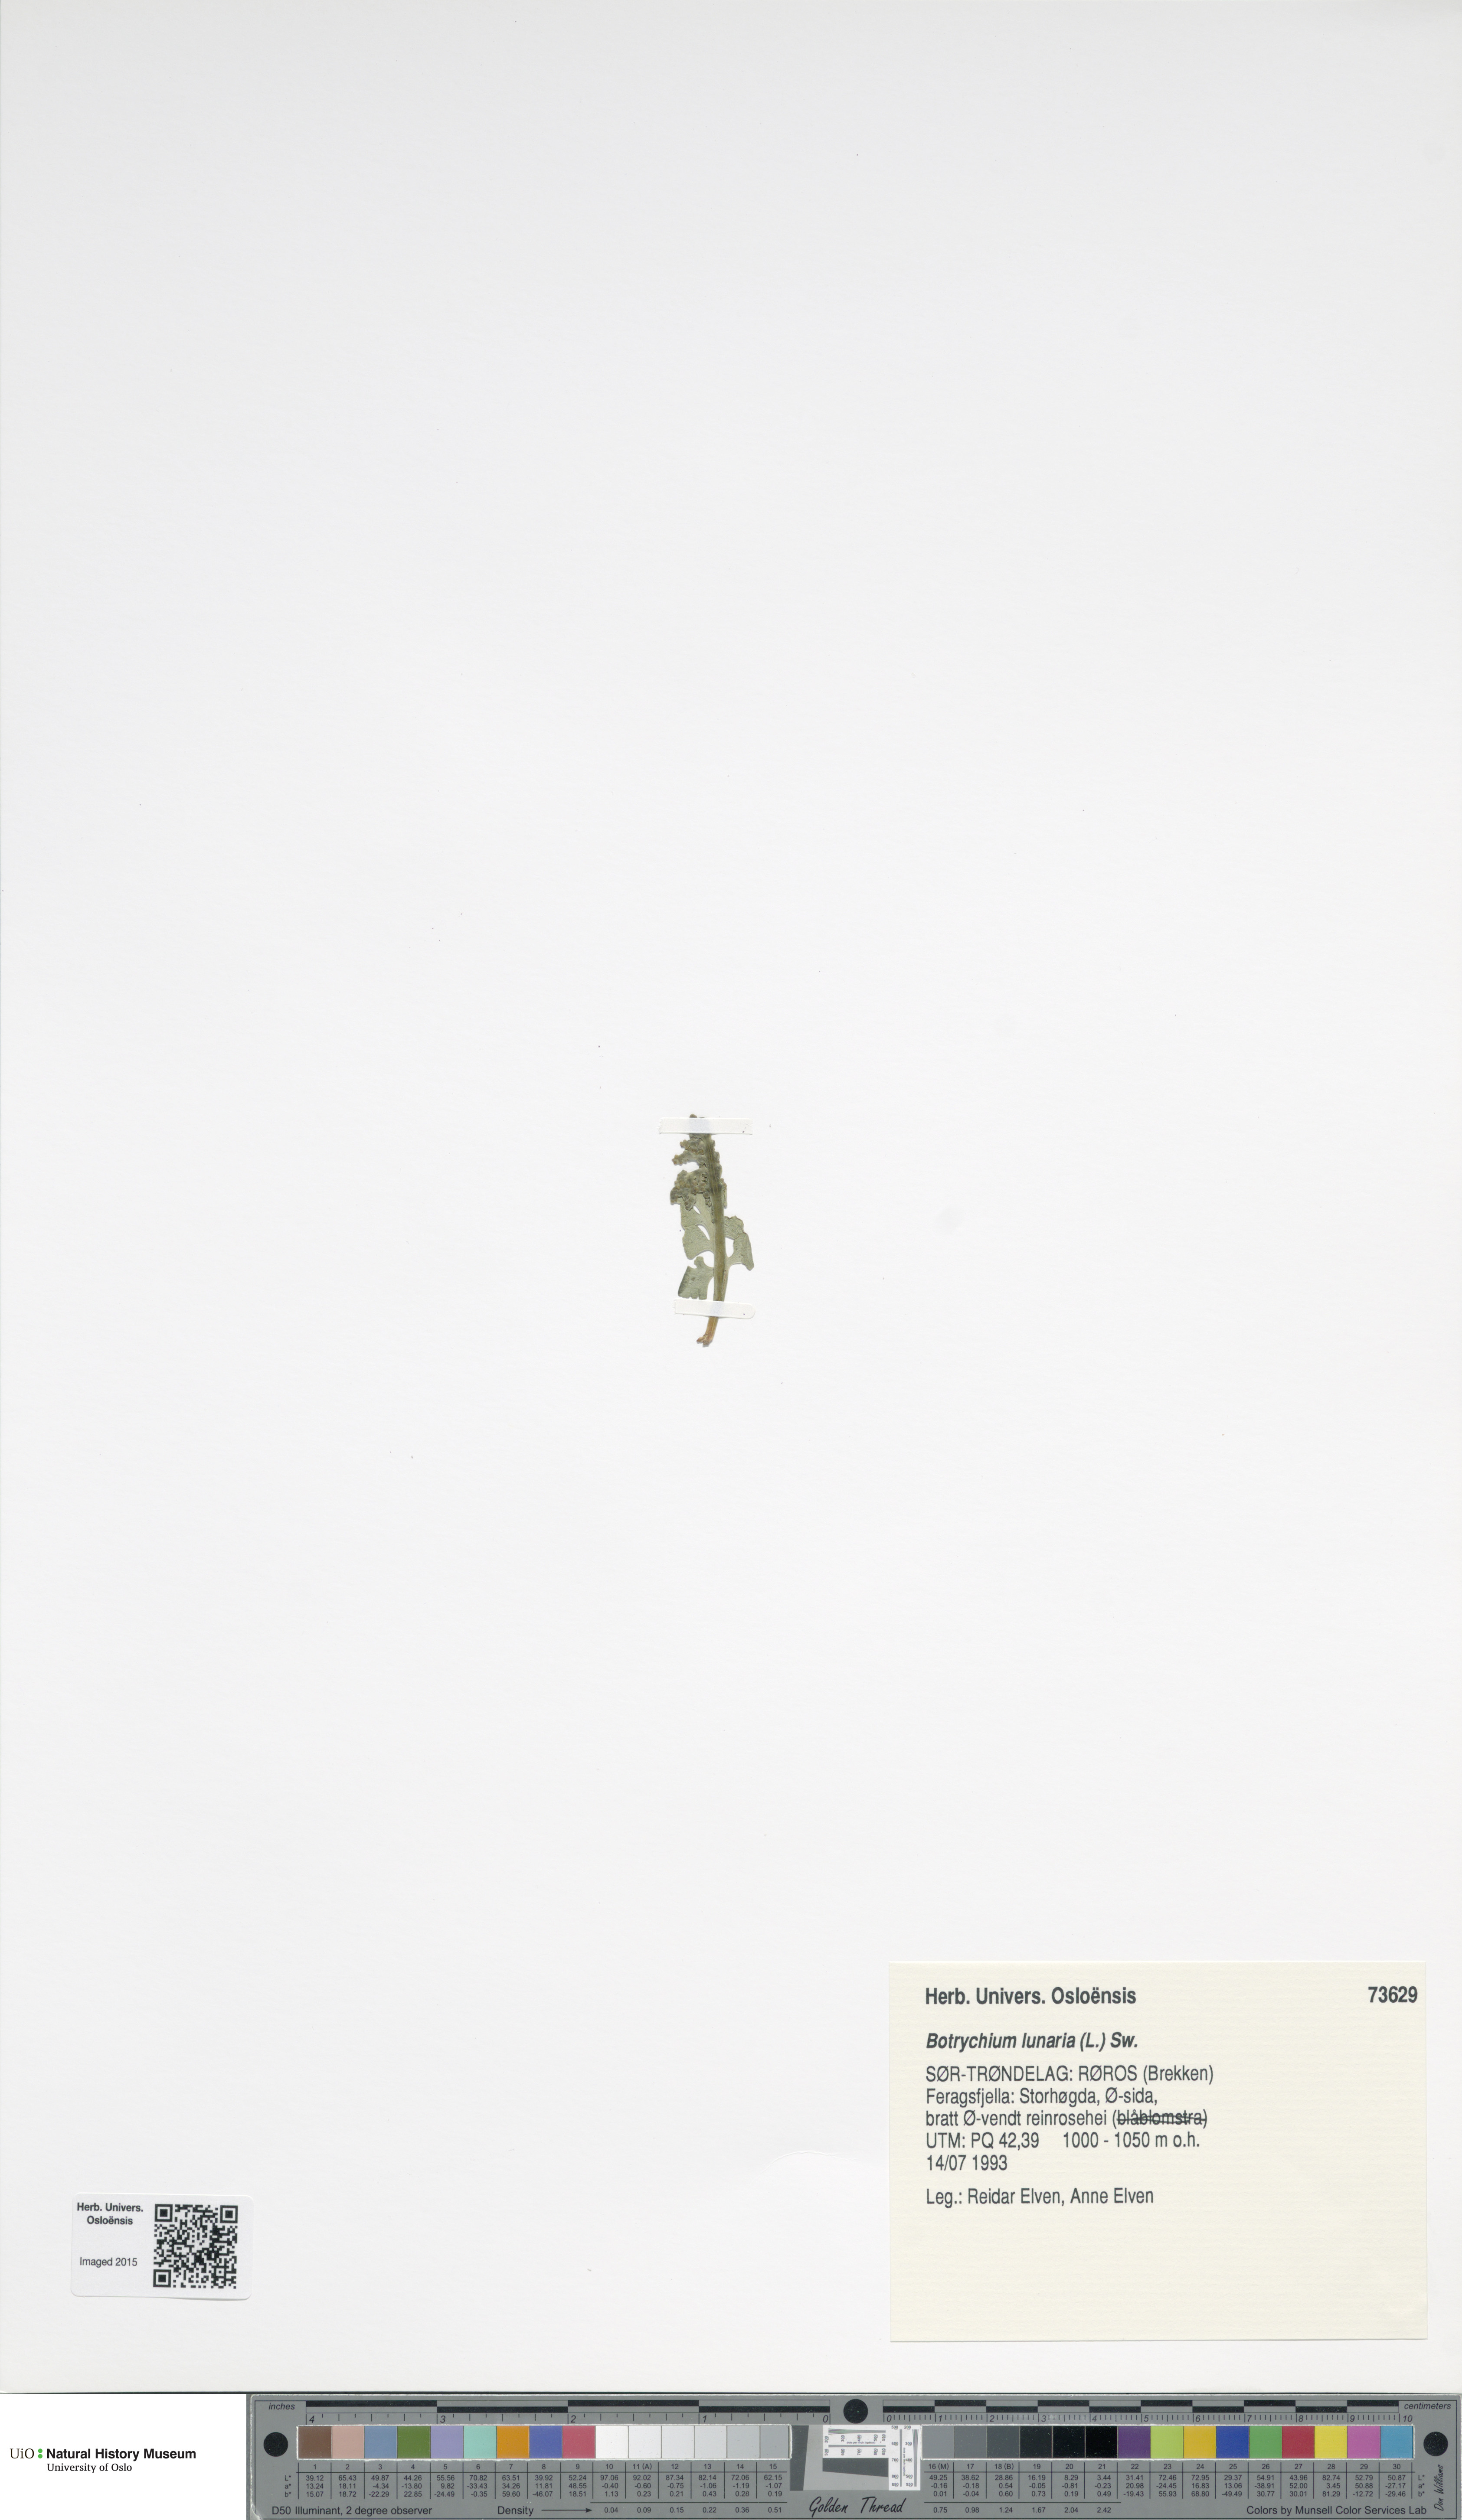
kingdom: Plantae
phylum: Tracheophyta
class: Polypodiopsida
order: Ophioglossales
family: Ophioglossaceae
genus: Botrychium
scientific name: Botrychium lunaria
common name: Moonwort
